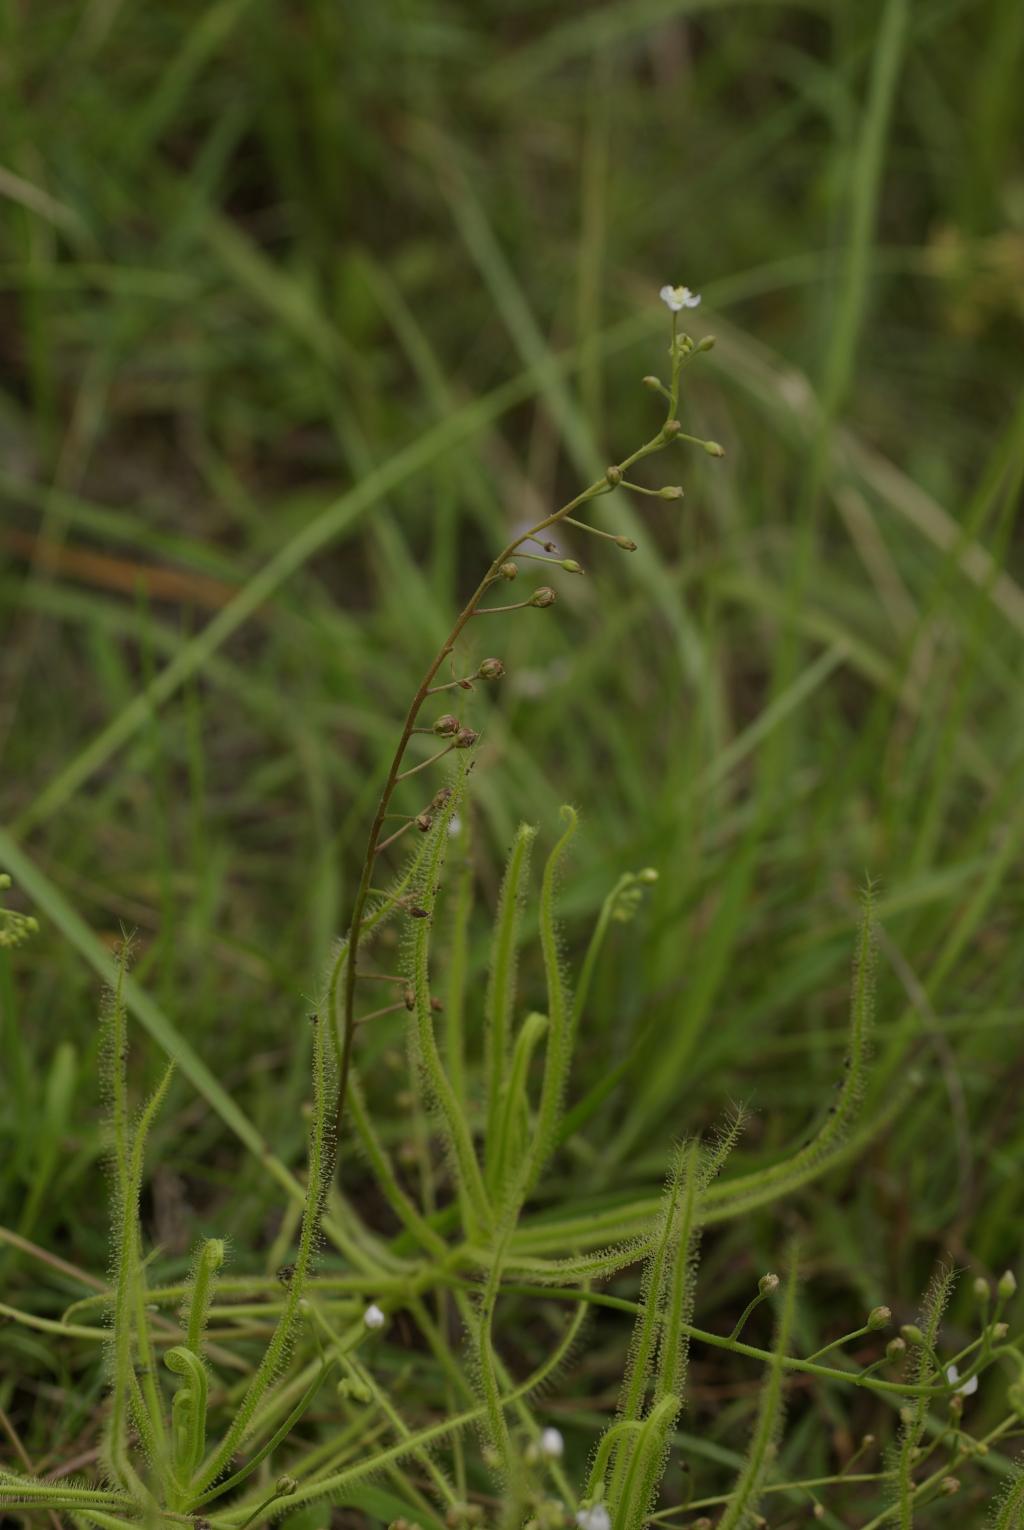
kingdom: Plantae
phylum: Tracheophyta
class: Magnoliopsida
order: Caryophyllales
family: Droseraceae
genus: Drosera
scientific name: Drosera indica
